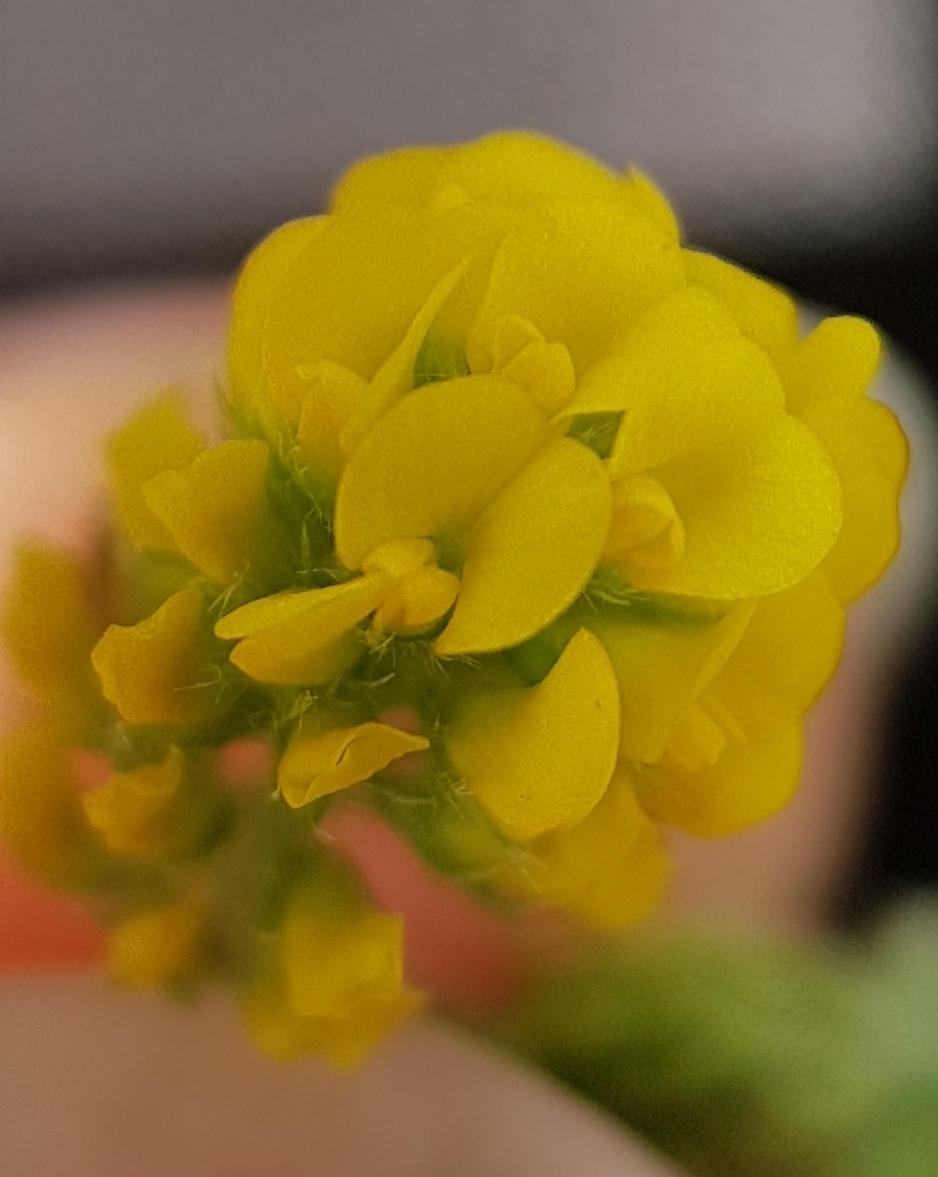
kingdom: Plantae
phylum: Tracheophyta
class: Magnoliopsida
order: Fabales
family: Fabaceae
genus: Medicago
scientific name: Medicago lupulina
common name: Humle-sneglebælg
